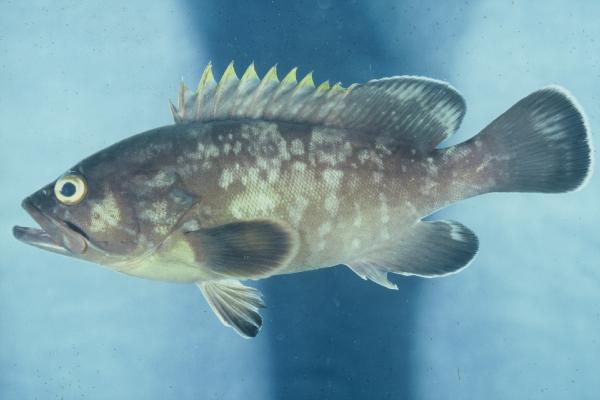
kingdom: Animalia
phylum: Chordata
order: Perciformes
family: Serranidae
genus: Epinephelus
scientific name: Epinephelus marginatus
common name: Dusky grouper
